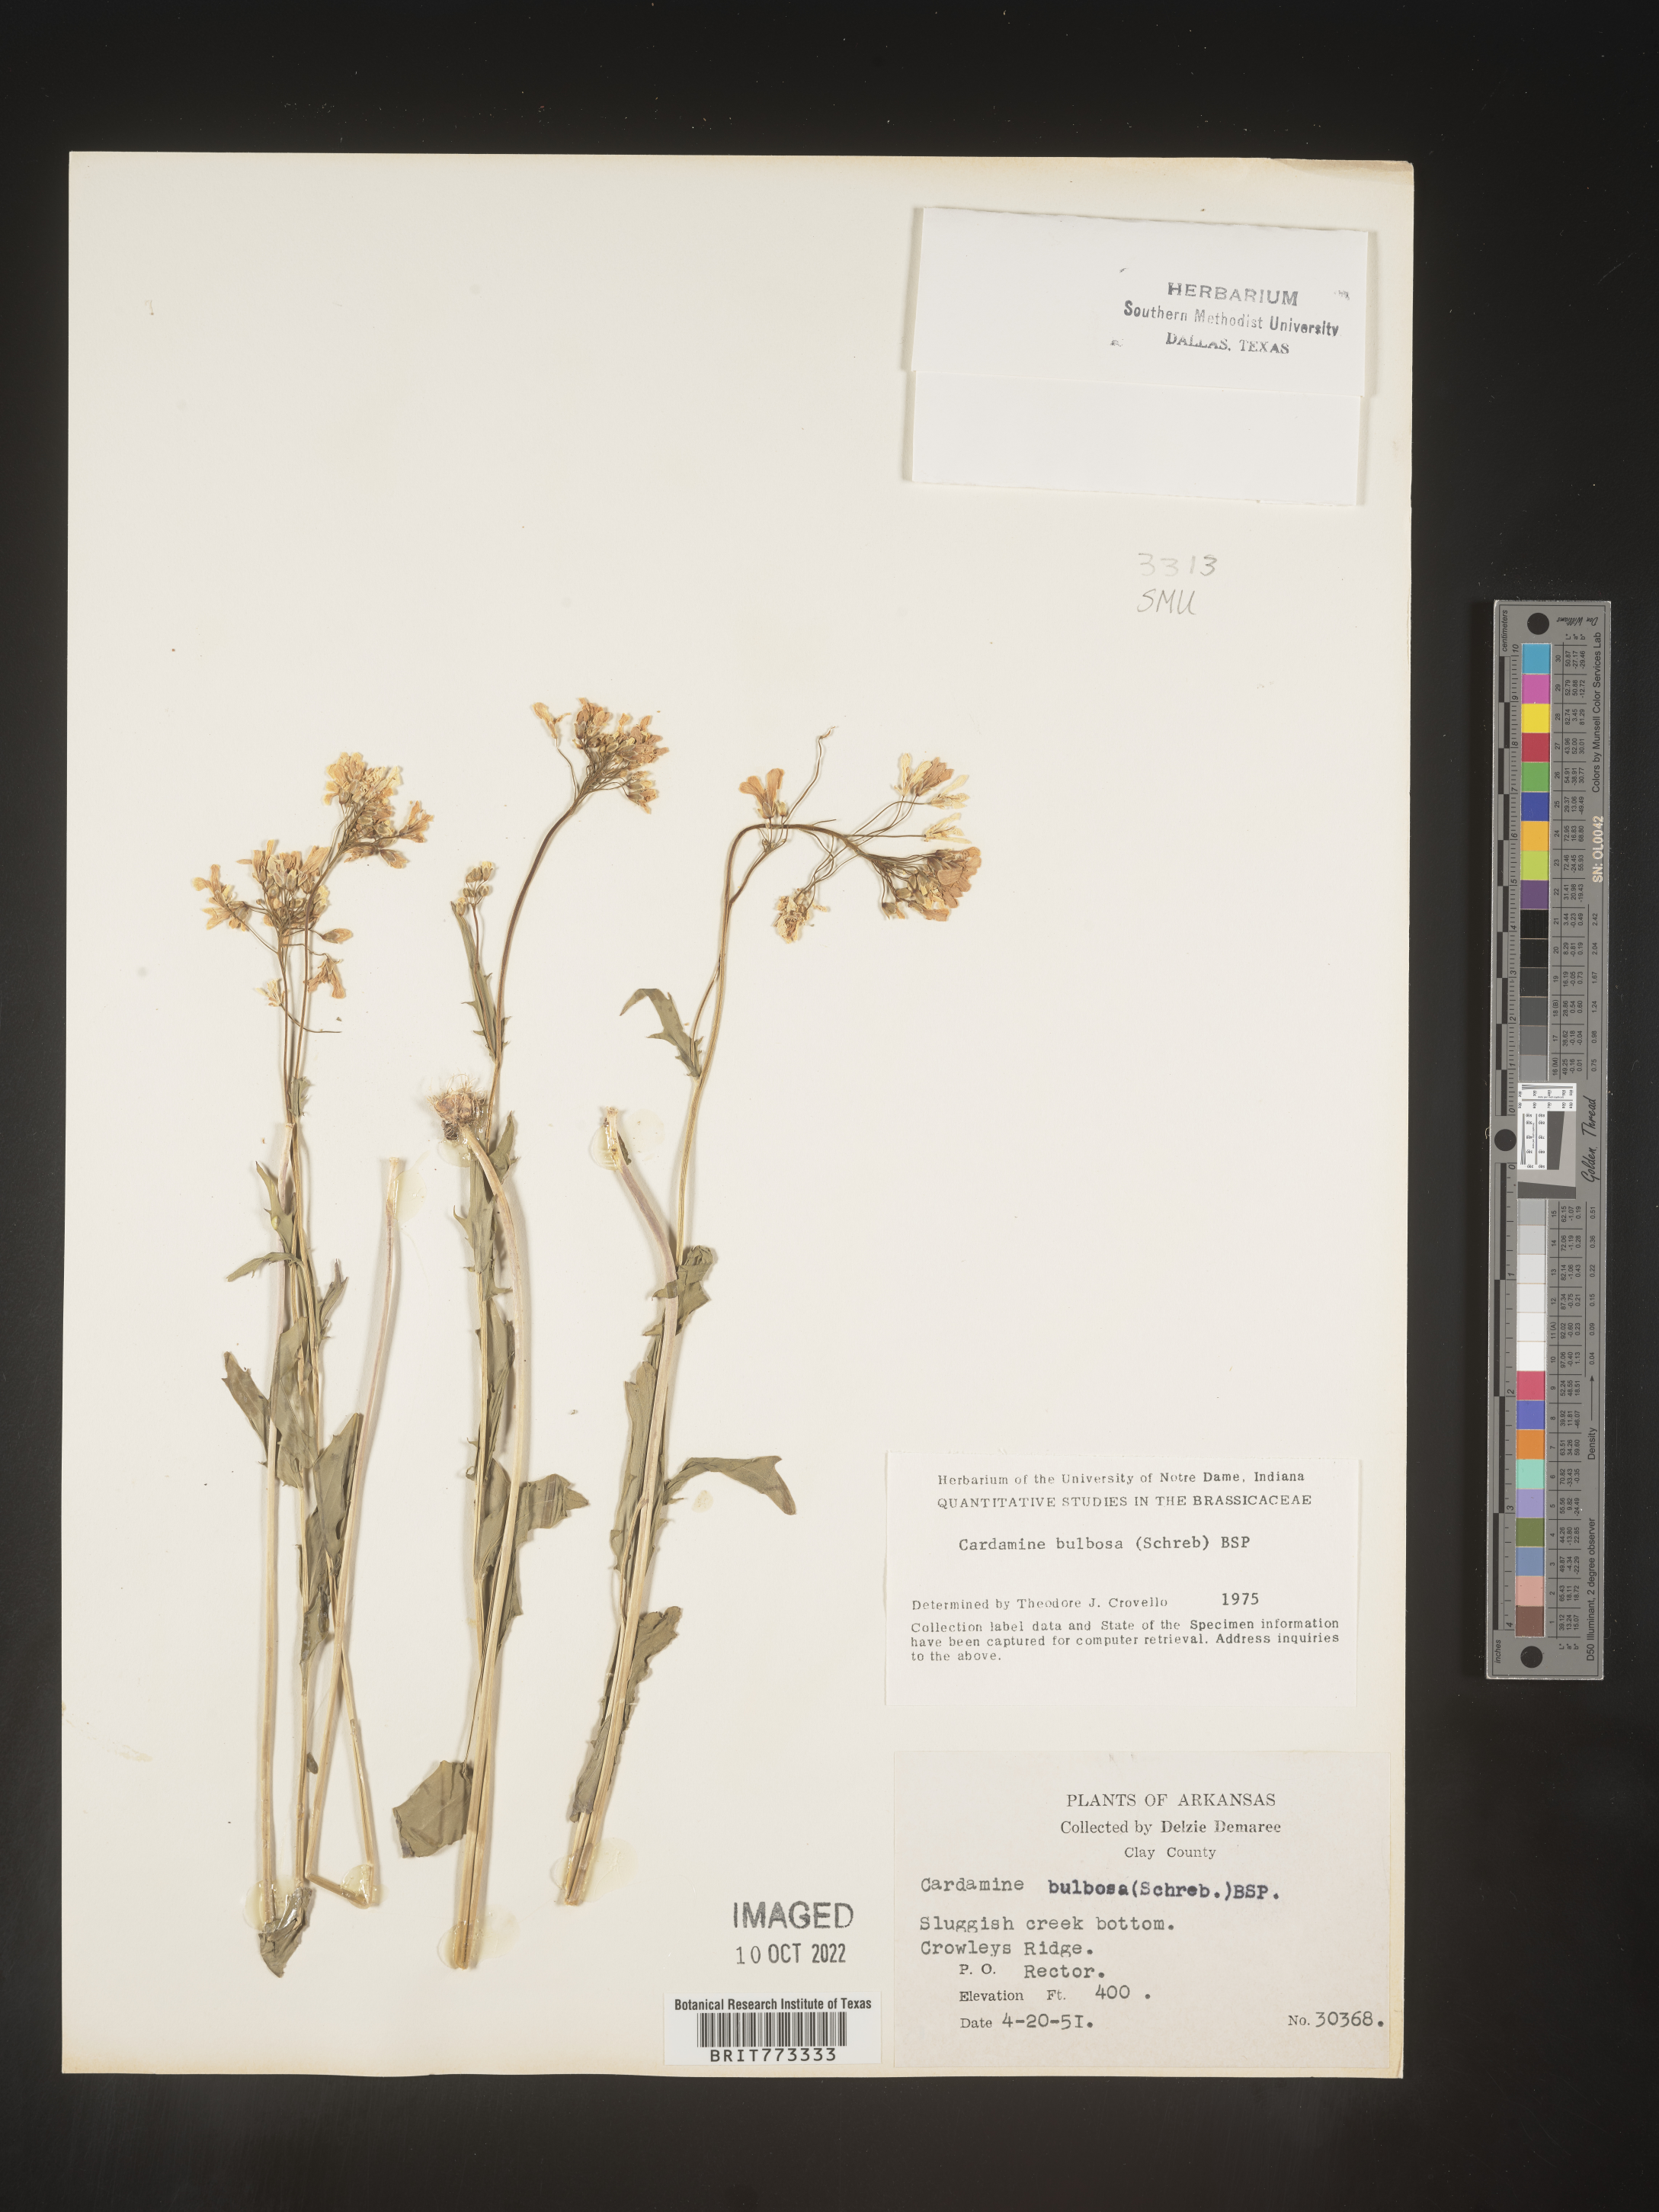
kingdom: Plantae
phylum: Tracheophyta
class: Magnoliopsida
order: Brassicales
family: Brassicaceae
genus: Cardamine
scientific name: Cardamine bulbosa
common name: Spring cress
